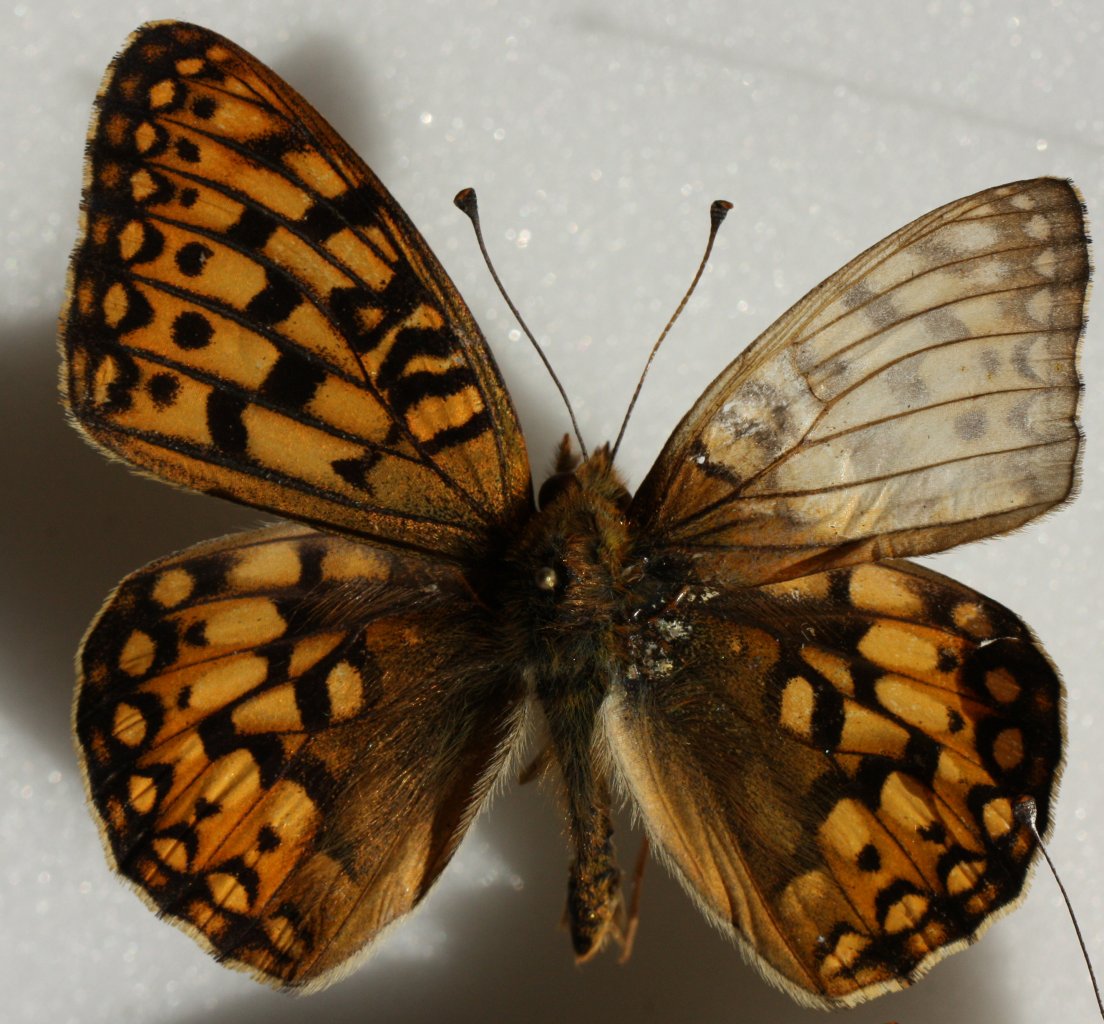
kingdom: Animalia
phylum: Arthropoda
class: Insecta
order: Lepidoptera
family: Nymphalidae
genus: Speyeria
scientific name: Speyeria
